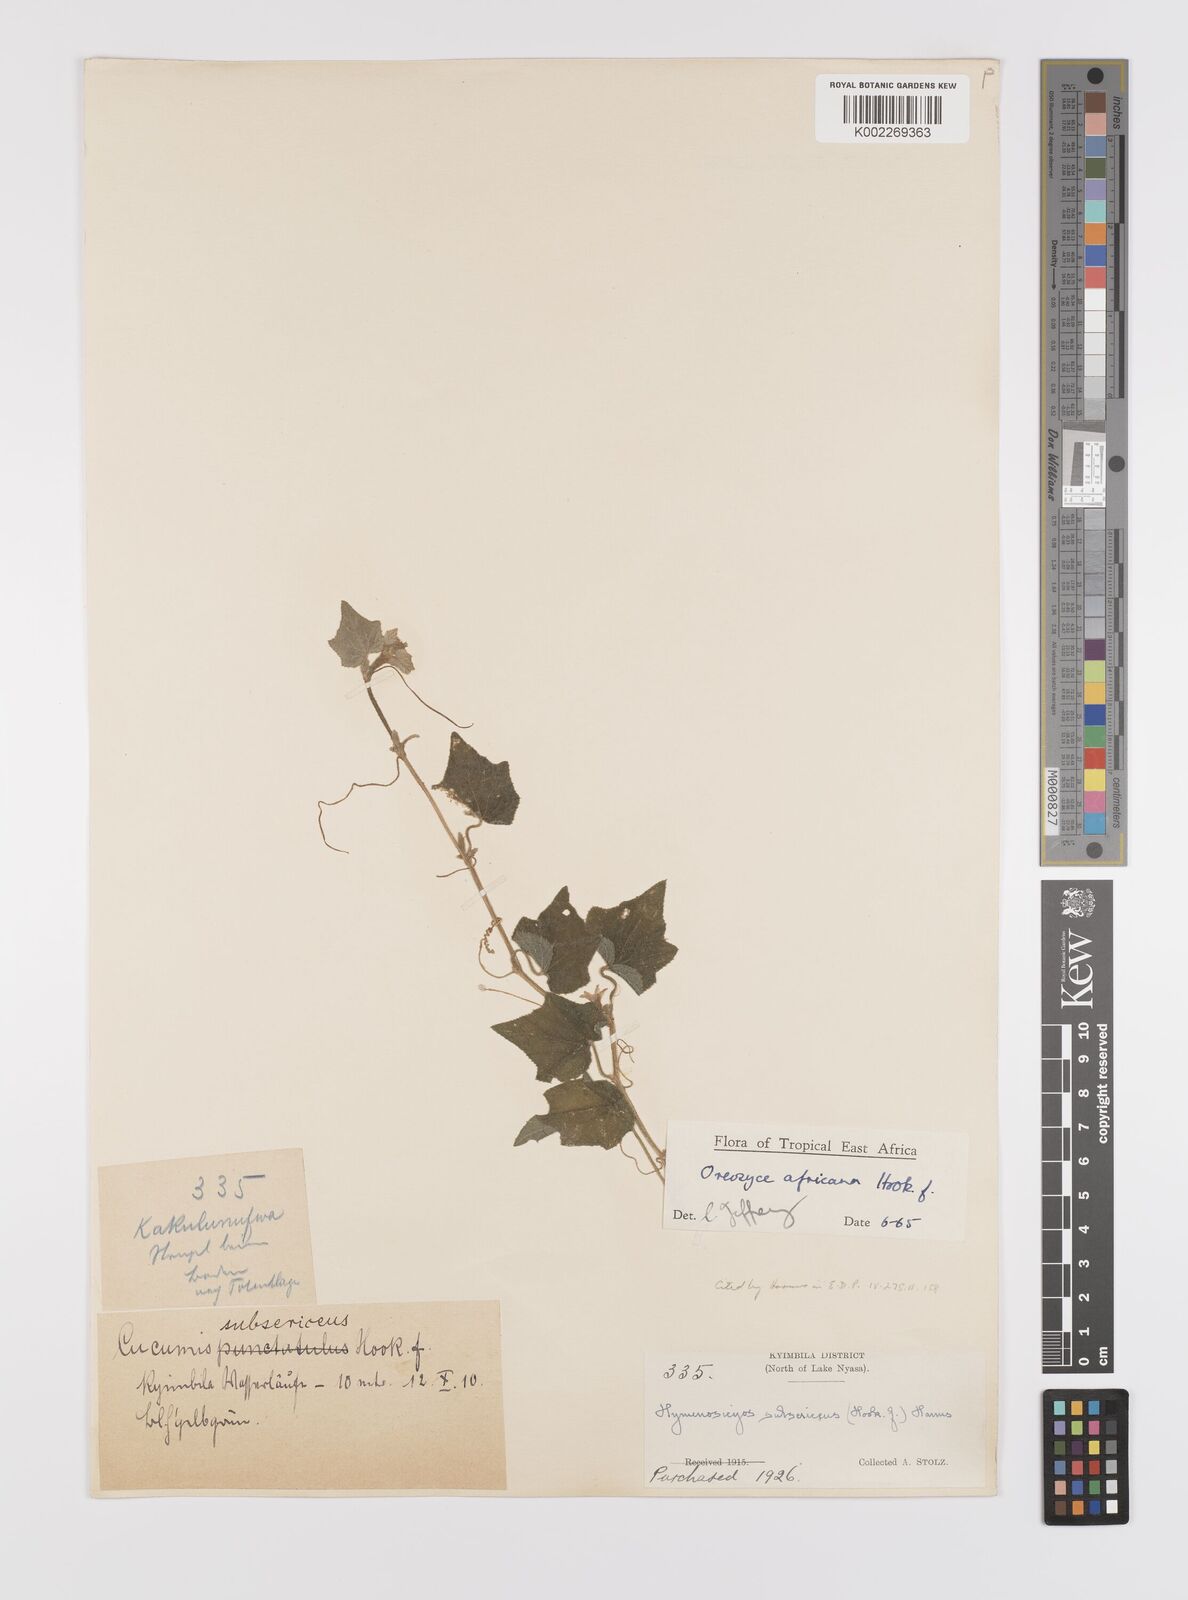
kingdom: Plantae
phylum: Tracheophyta
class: Magnoliopsida
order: Cucurbitales
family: Cucurbitaceae
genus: Cucumis
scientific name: Cucumis oreosyce
